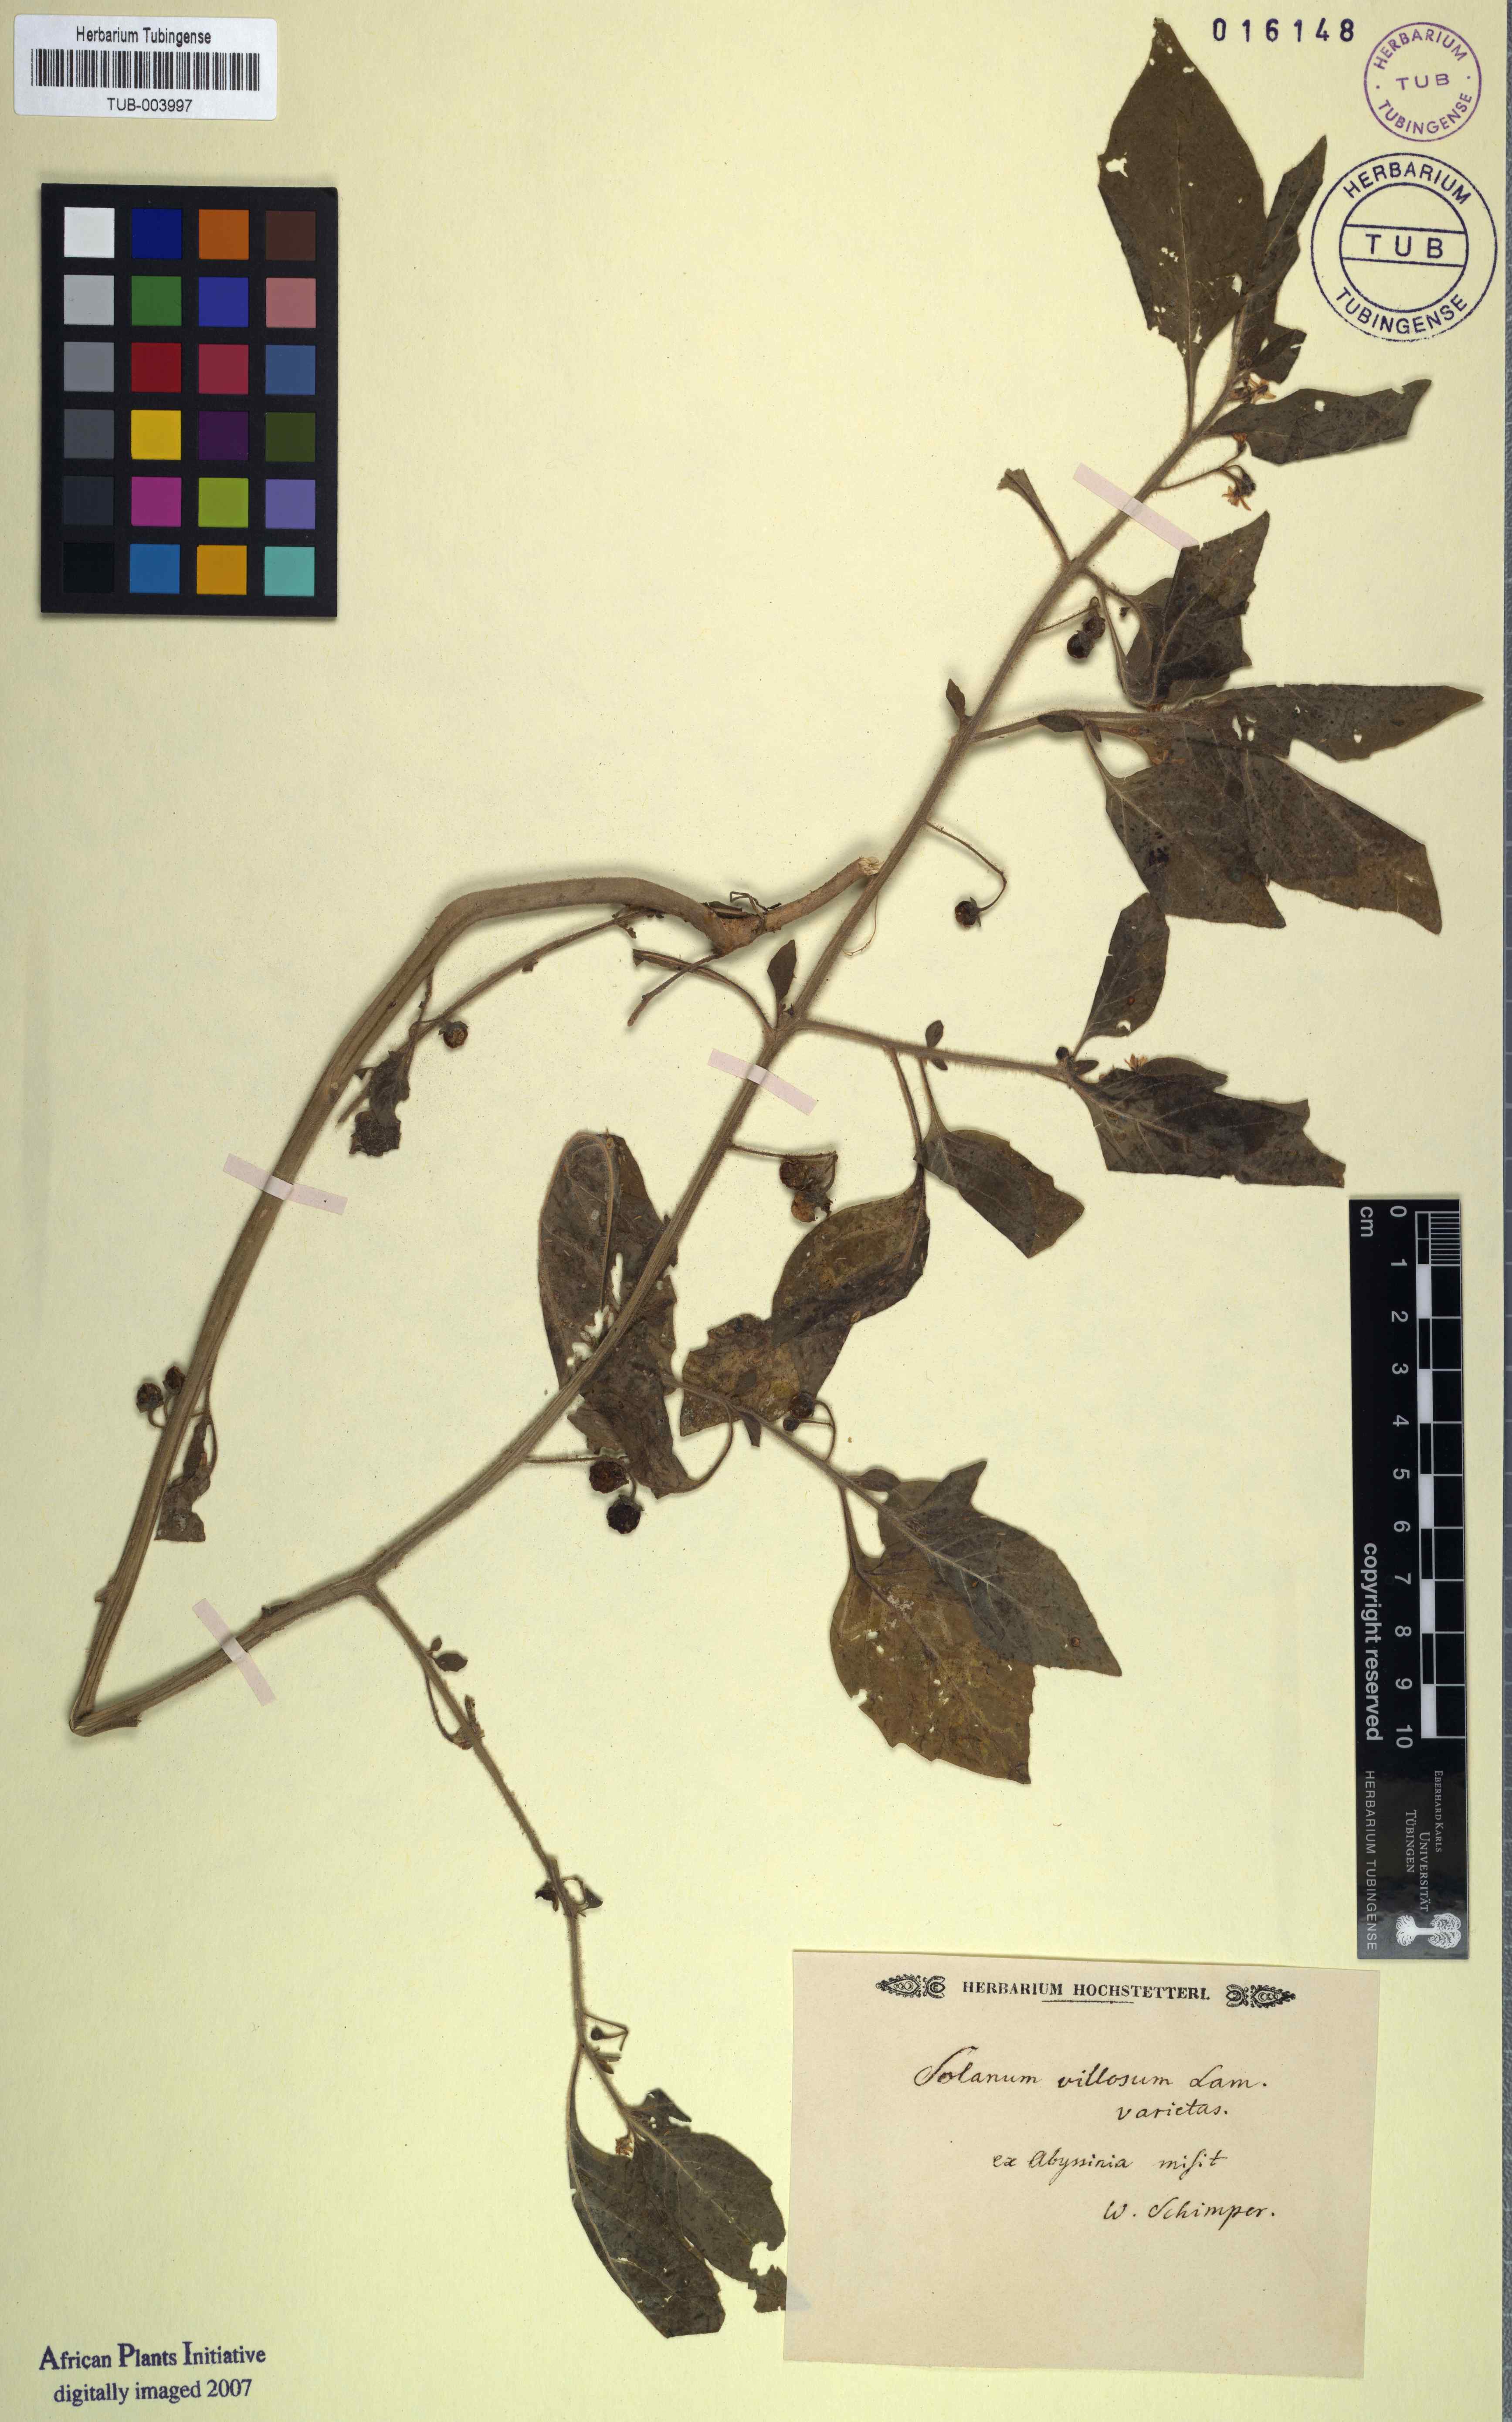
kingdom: Plantae
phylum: Tracheophyta
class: Magnoliopsida
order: Solanales
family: Solanaceae
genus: Solanum
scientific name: Solanum villosum
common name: Red nightshade
